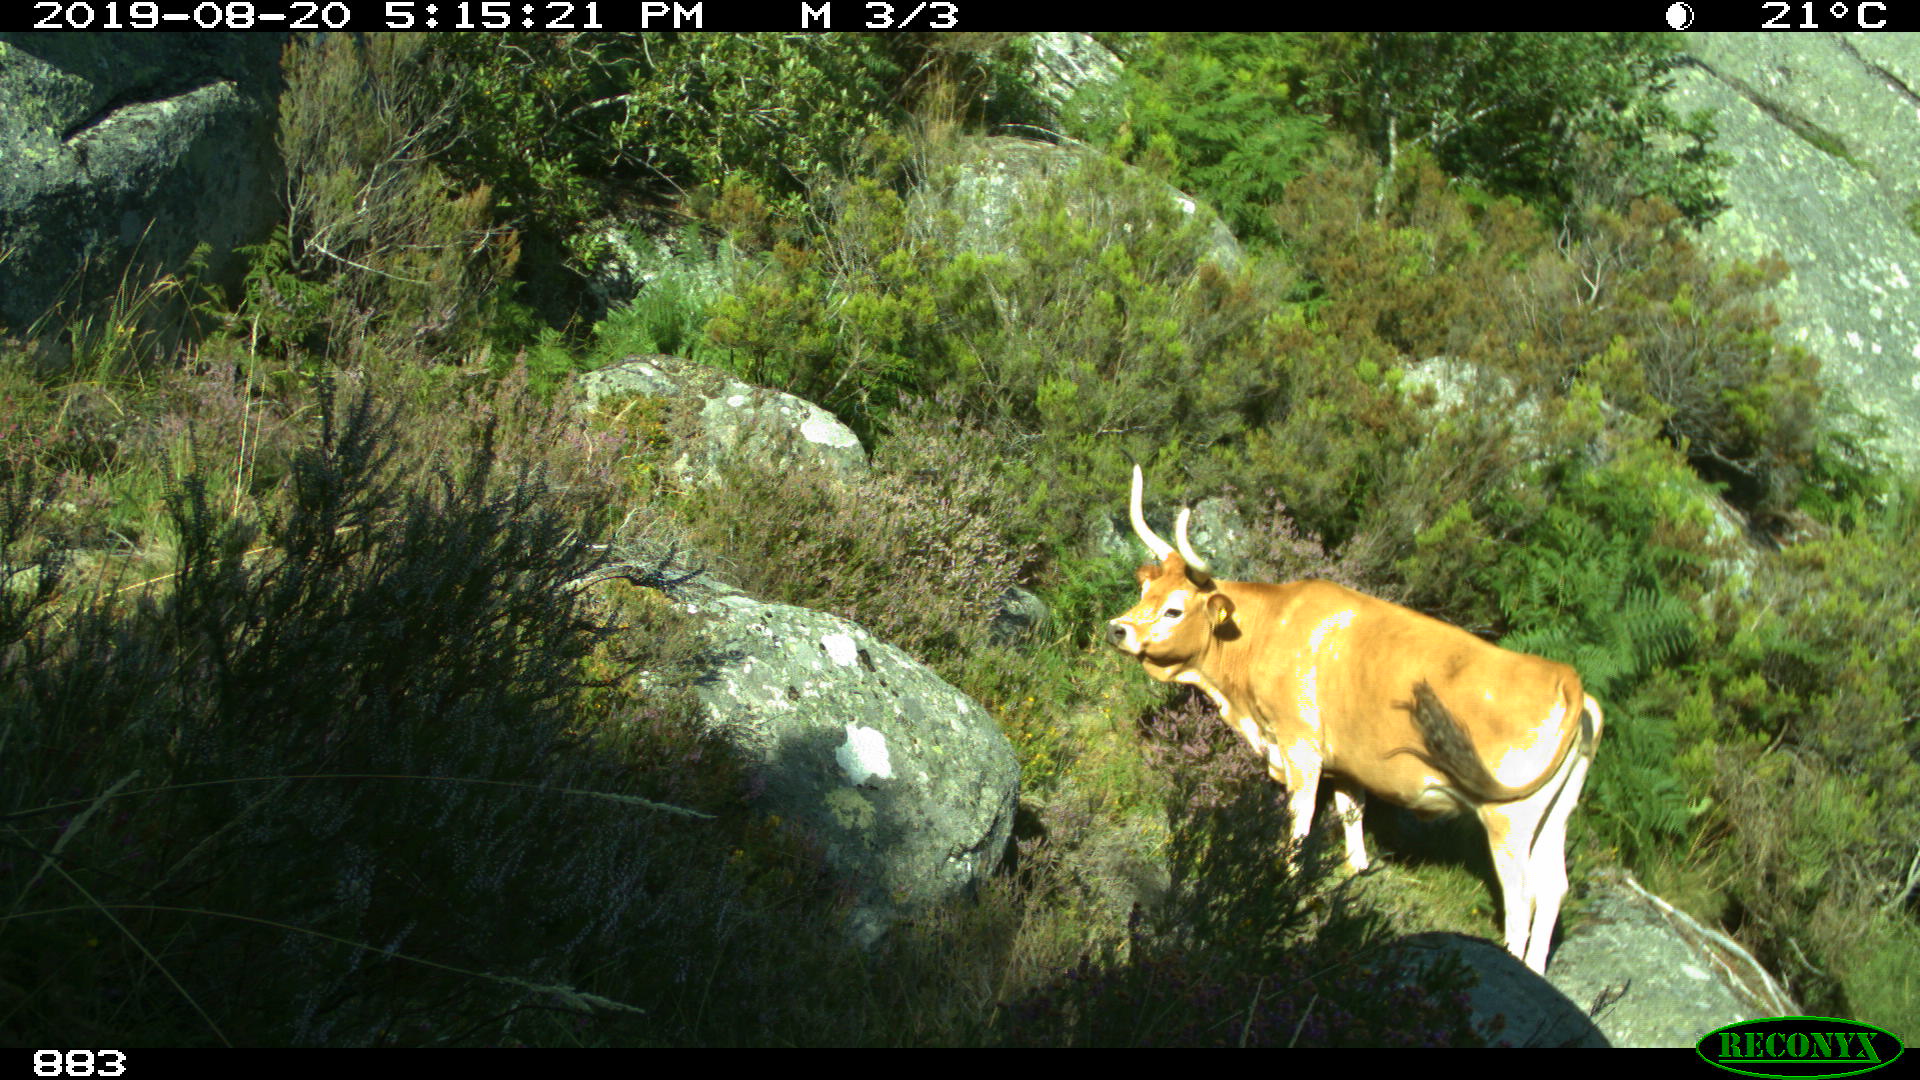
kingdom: Animalia
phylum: Chordata
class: Mammalia
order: Artiodactyla
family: Bovidae
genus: Bos
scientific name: Bos taurus
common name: Domesticated cattle
